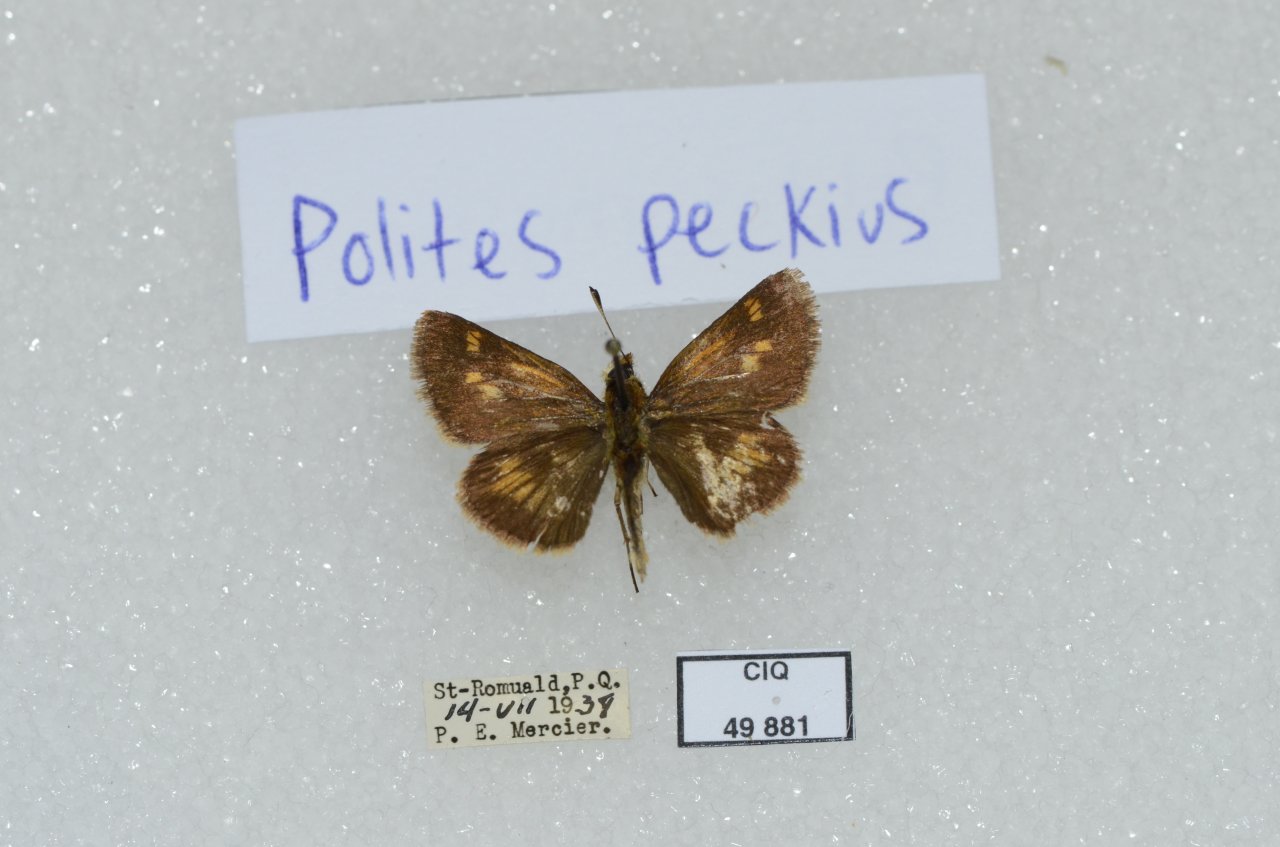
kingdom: Animalia
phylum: Arthropoda
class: Insecta
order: Lepidoptera
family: Hesperiidae
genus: Polites
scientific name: Polites coras
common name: Peck's Skipper
